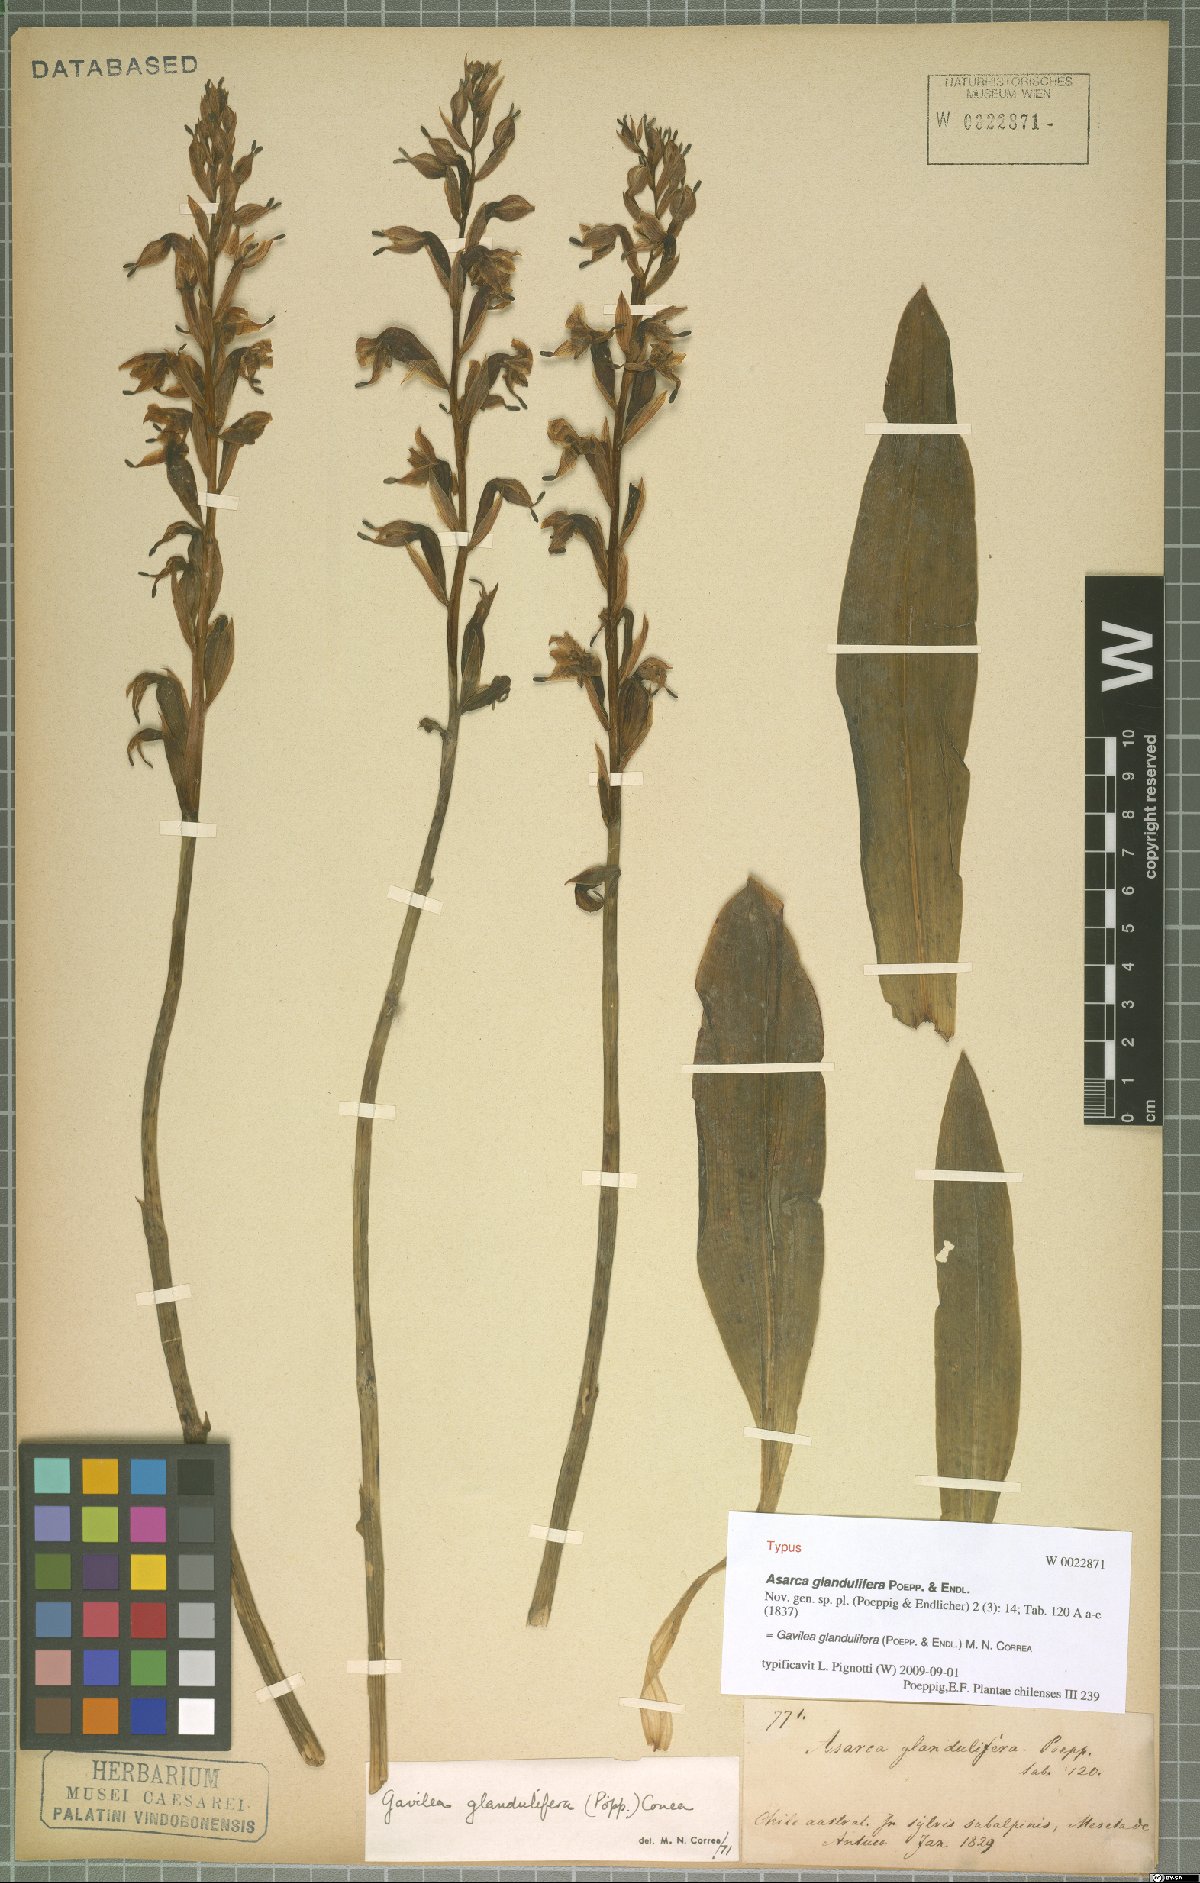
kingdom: Plantae
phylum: Tracheophyta
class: Liliopsida
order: Asparagales
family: Orchidaceae
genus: Gavilea
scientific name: Gavilea glandulifera
